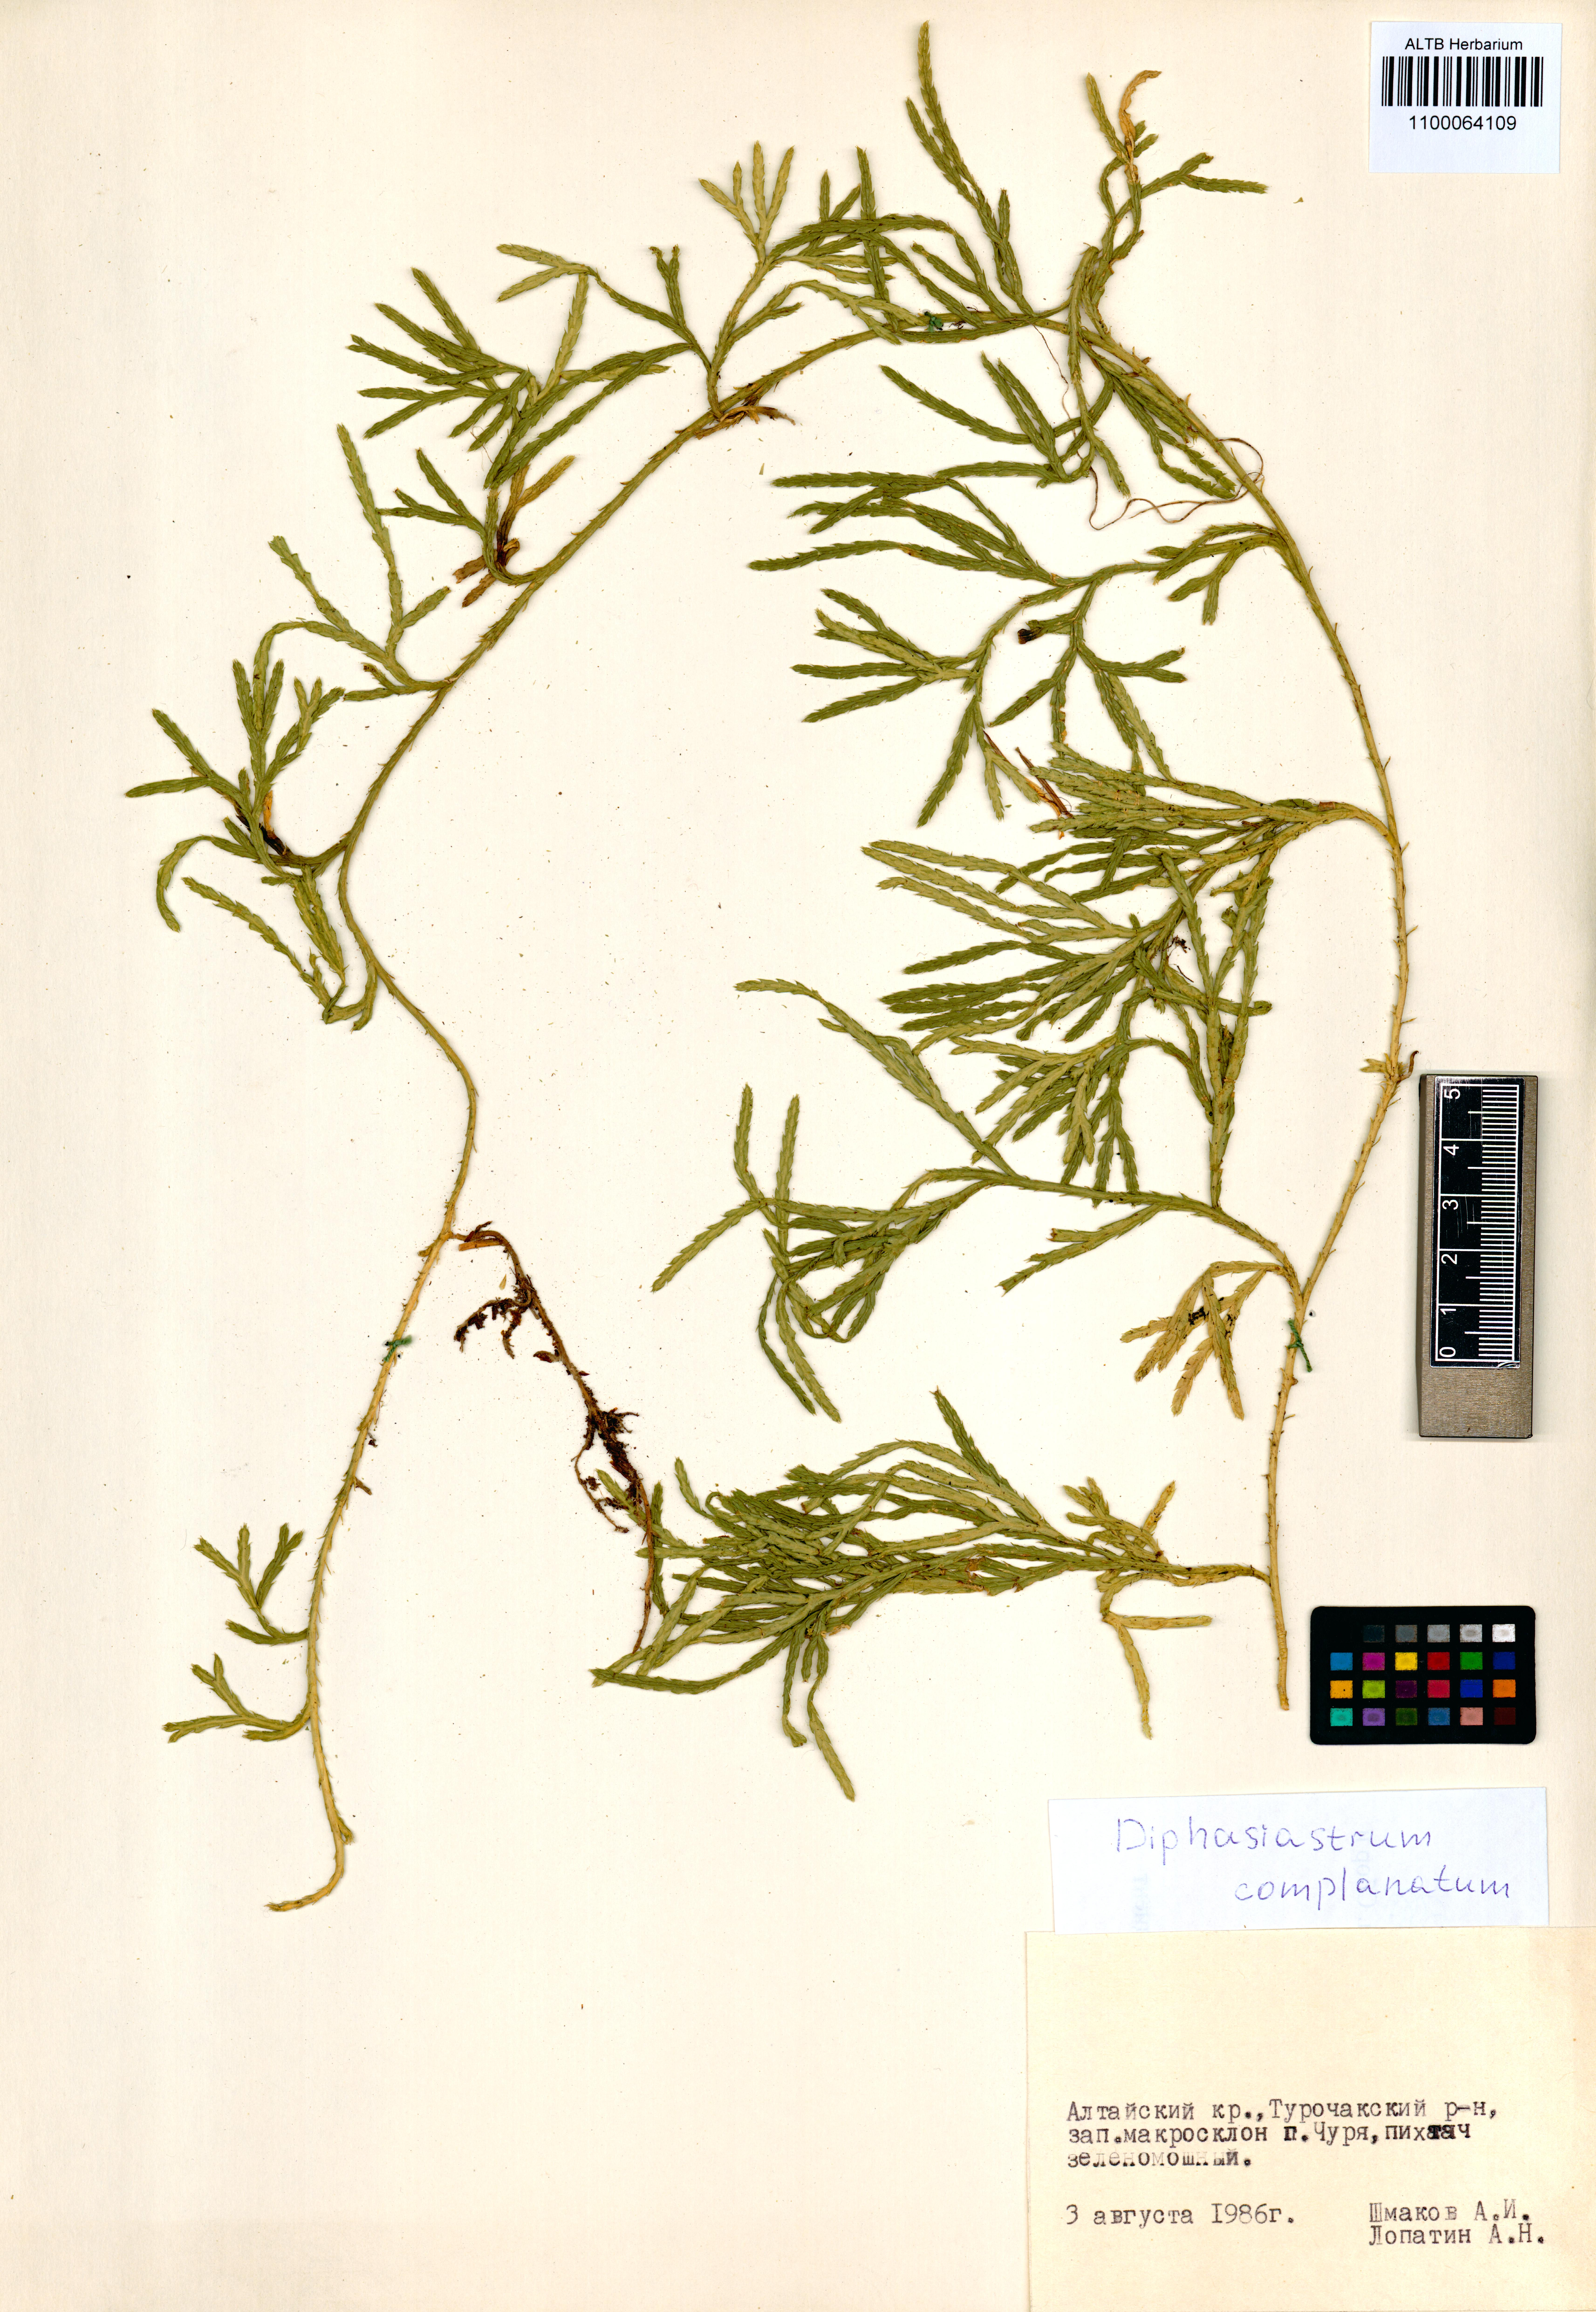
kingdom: Plantae
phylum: Tracheophyta
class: Lycopodiopsida
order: Lycopodiales
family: Lycopodiaceae
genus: Diphasiastrum
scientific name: Diphasiastrum complanatum
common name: Northern running-pine
